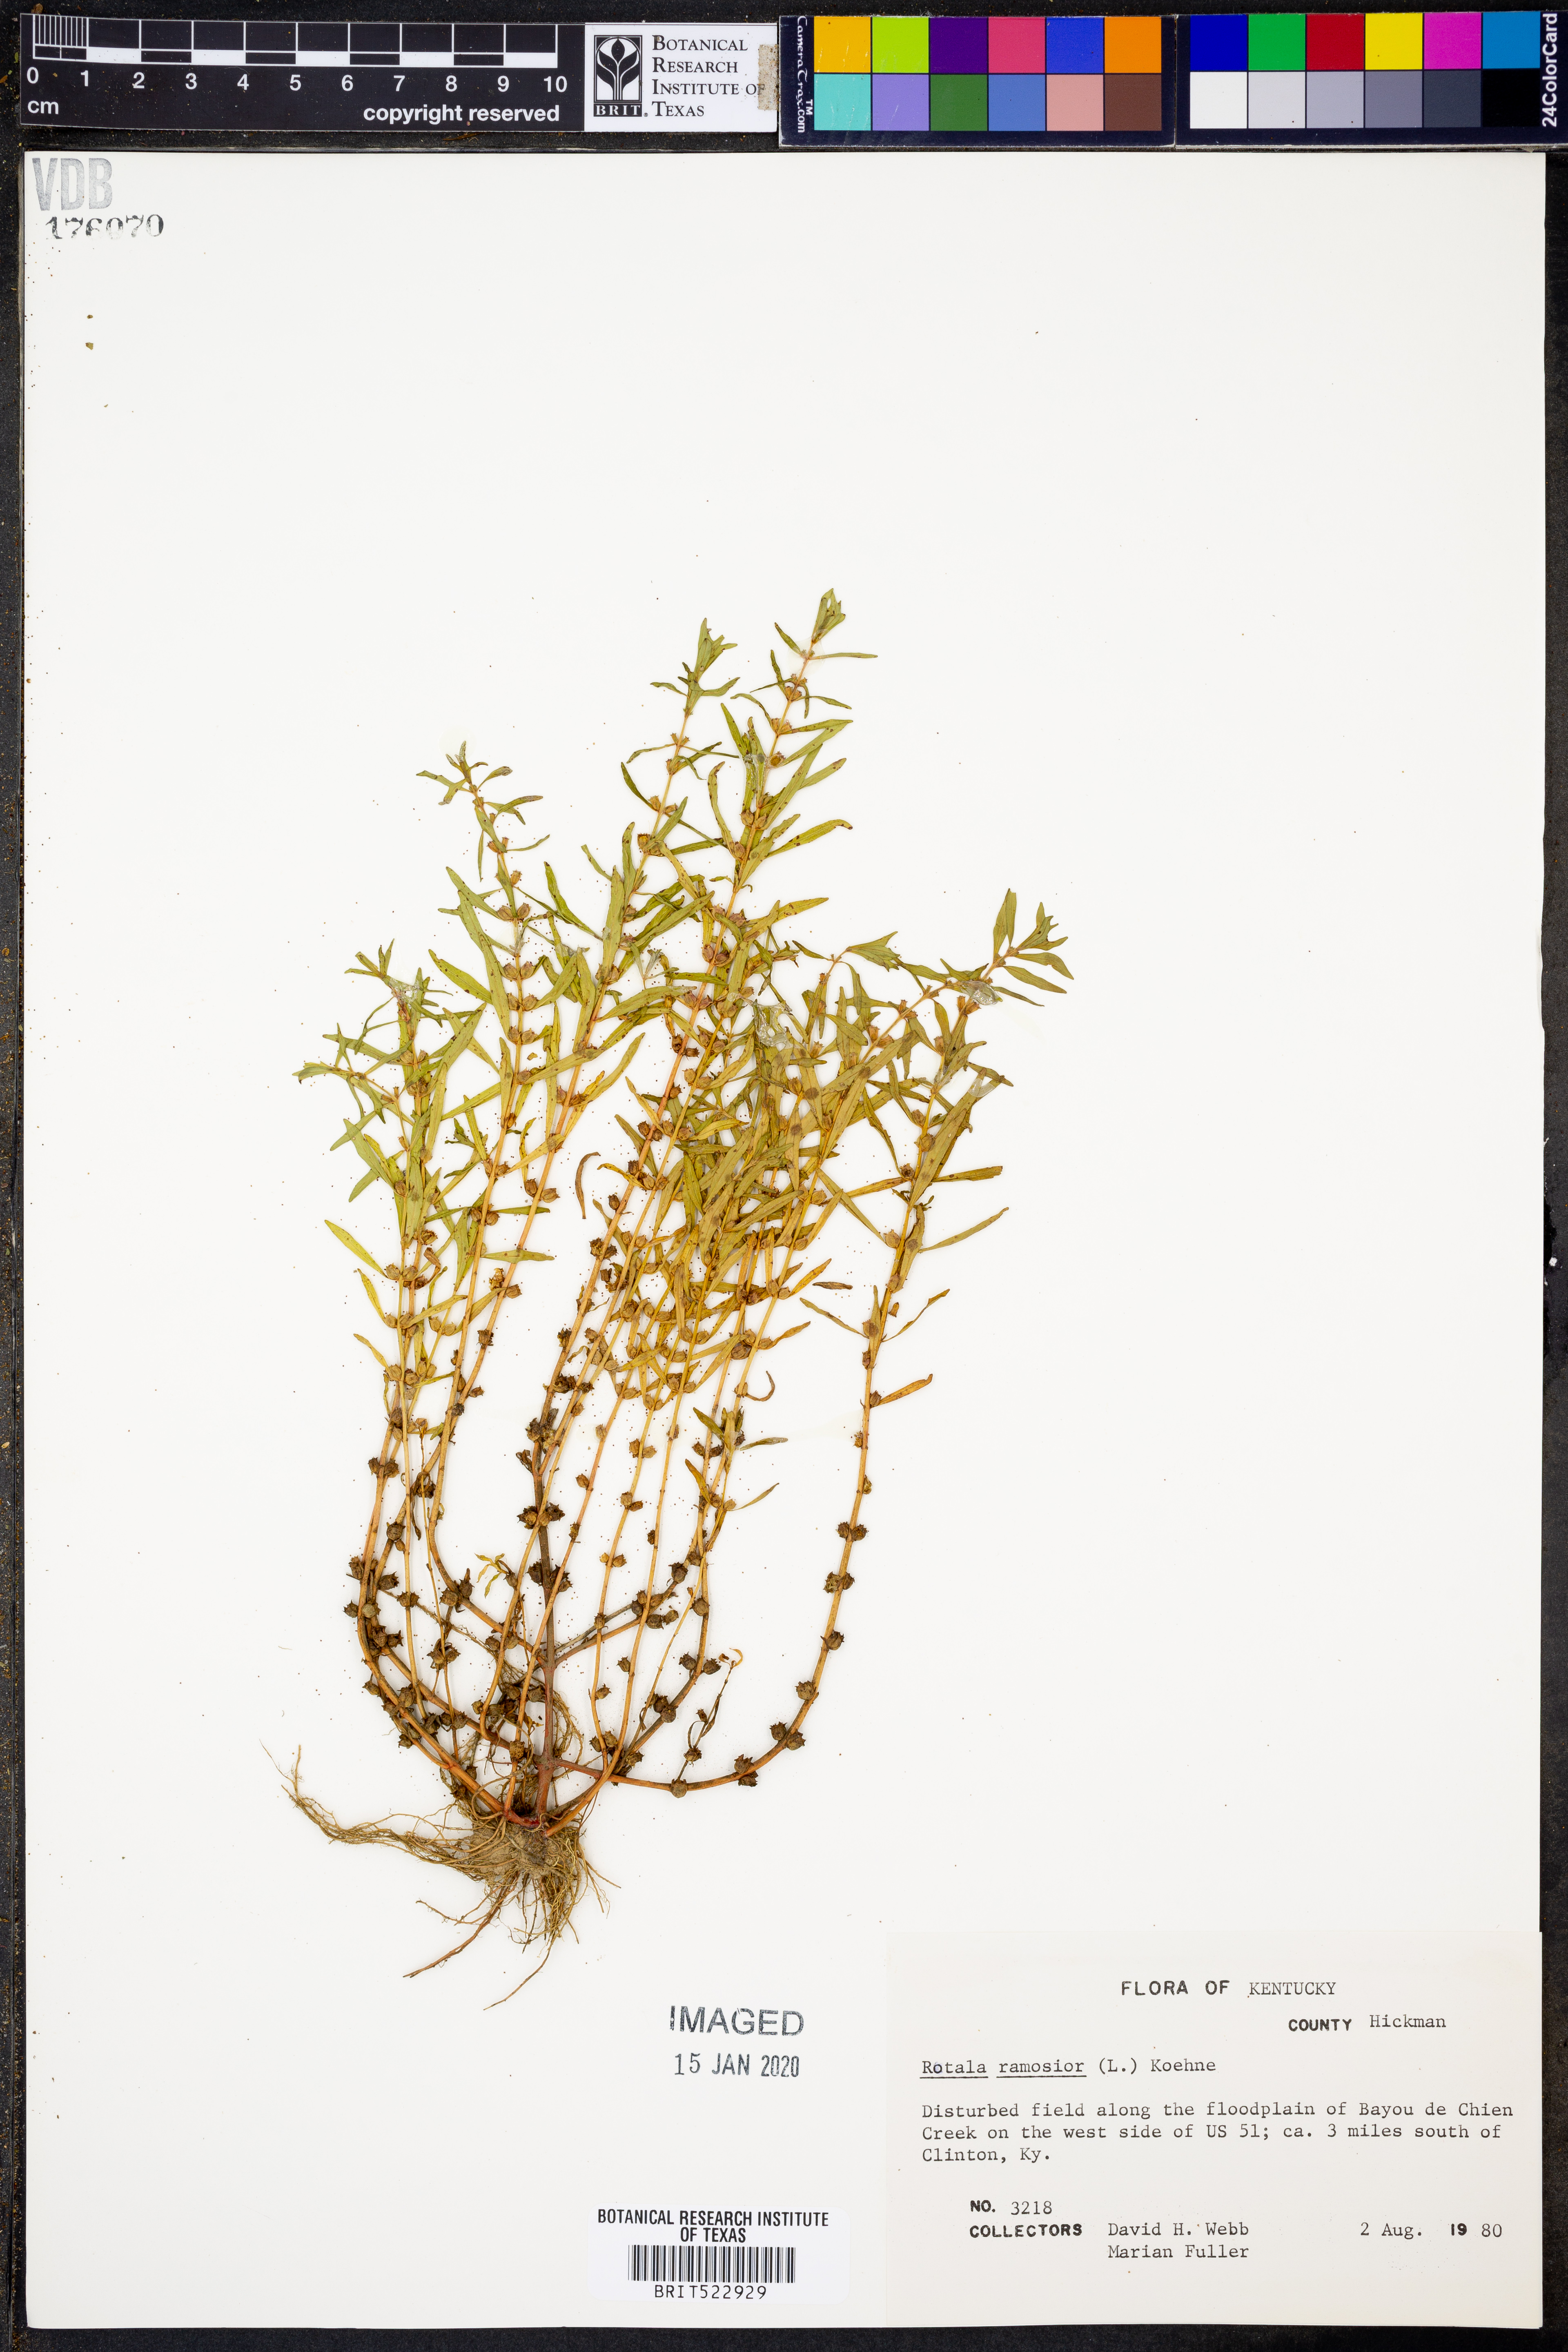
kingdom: Plantae
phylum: Tracheophyta
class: Magnoliopsida
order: Myrtales
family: Lythraceae
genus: Rotala
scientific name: Rotala ramosior
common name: Lowland rotala
